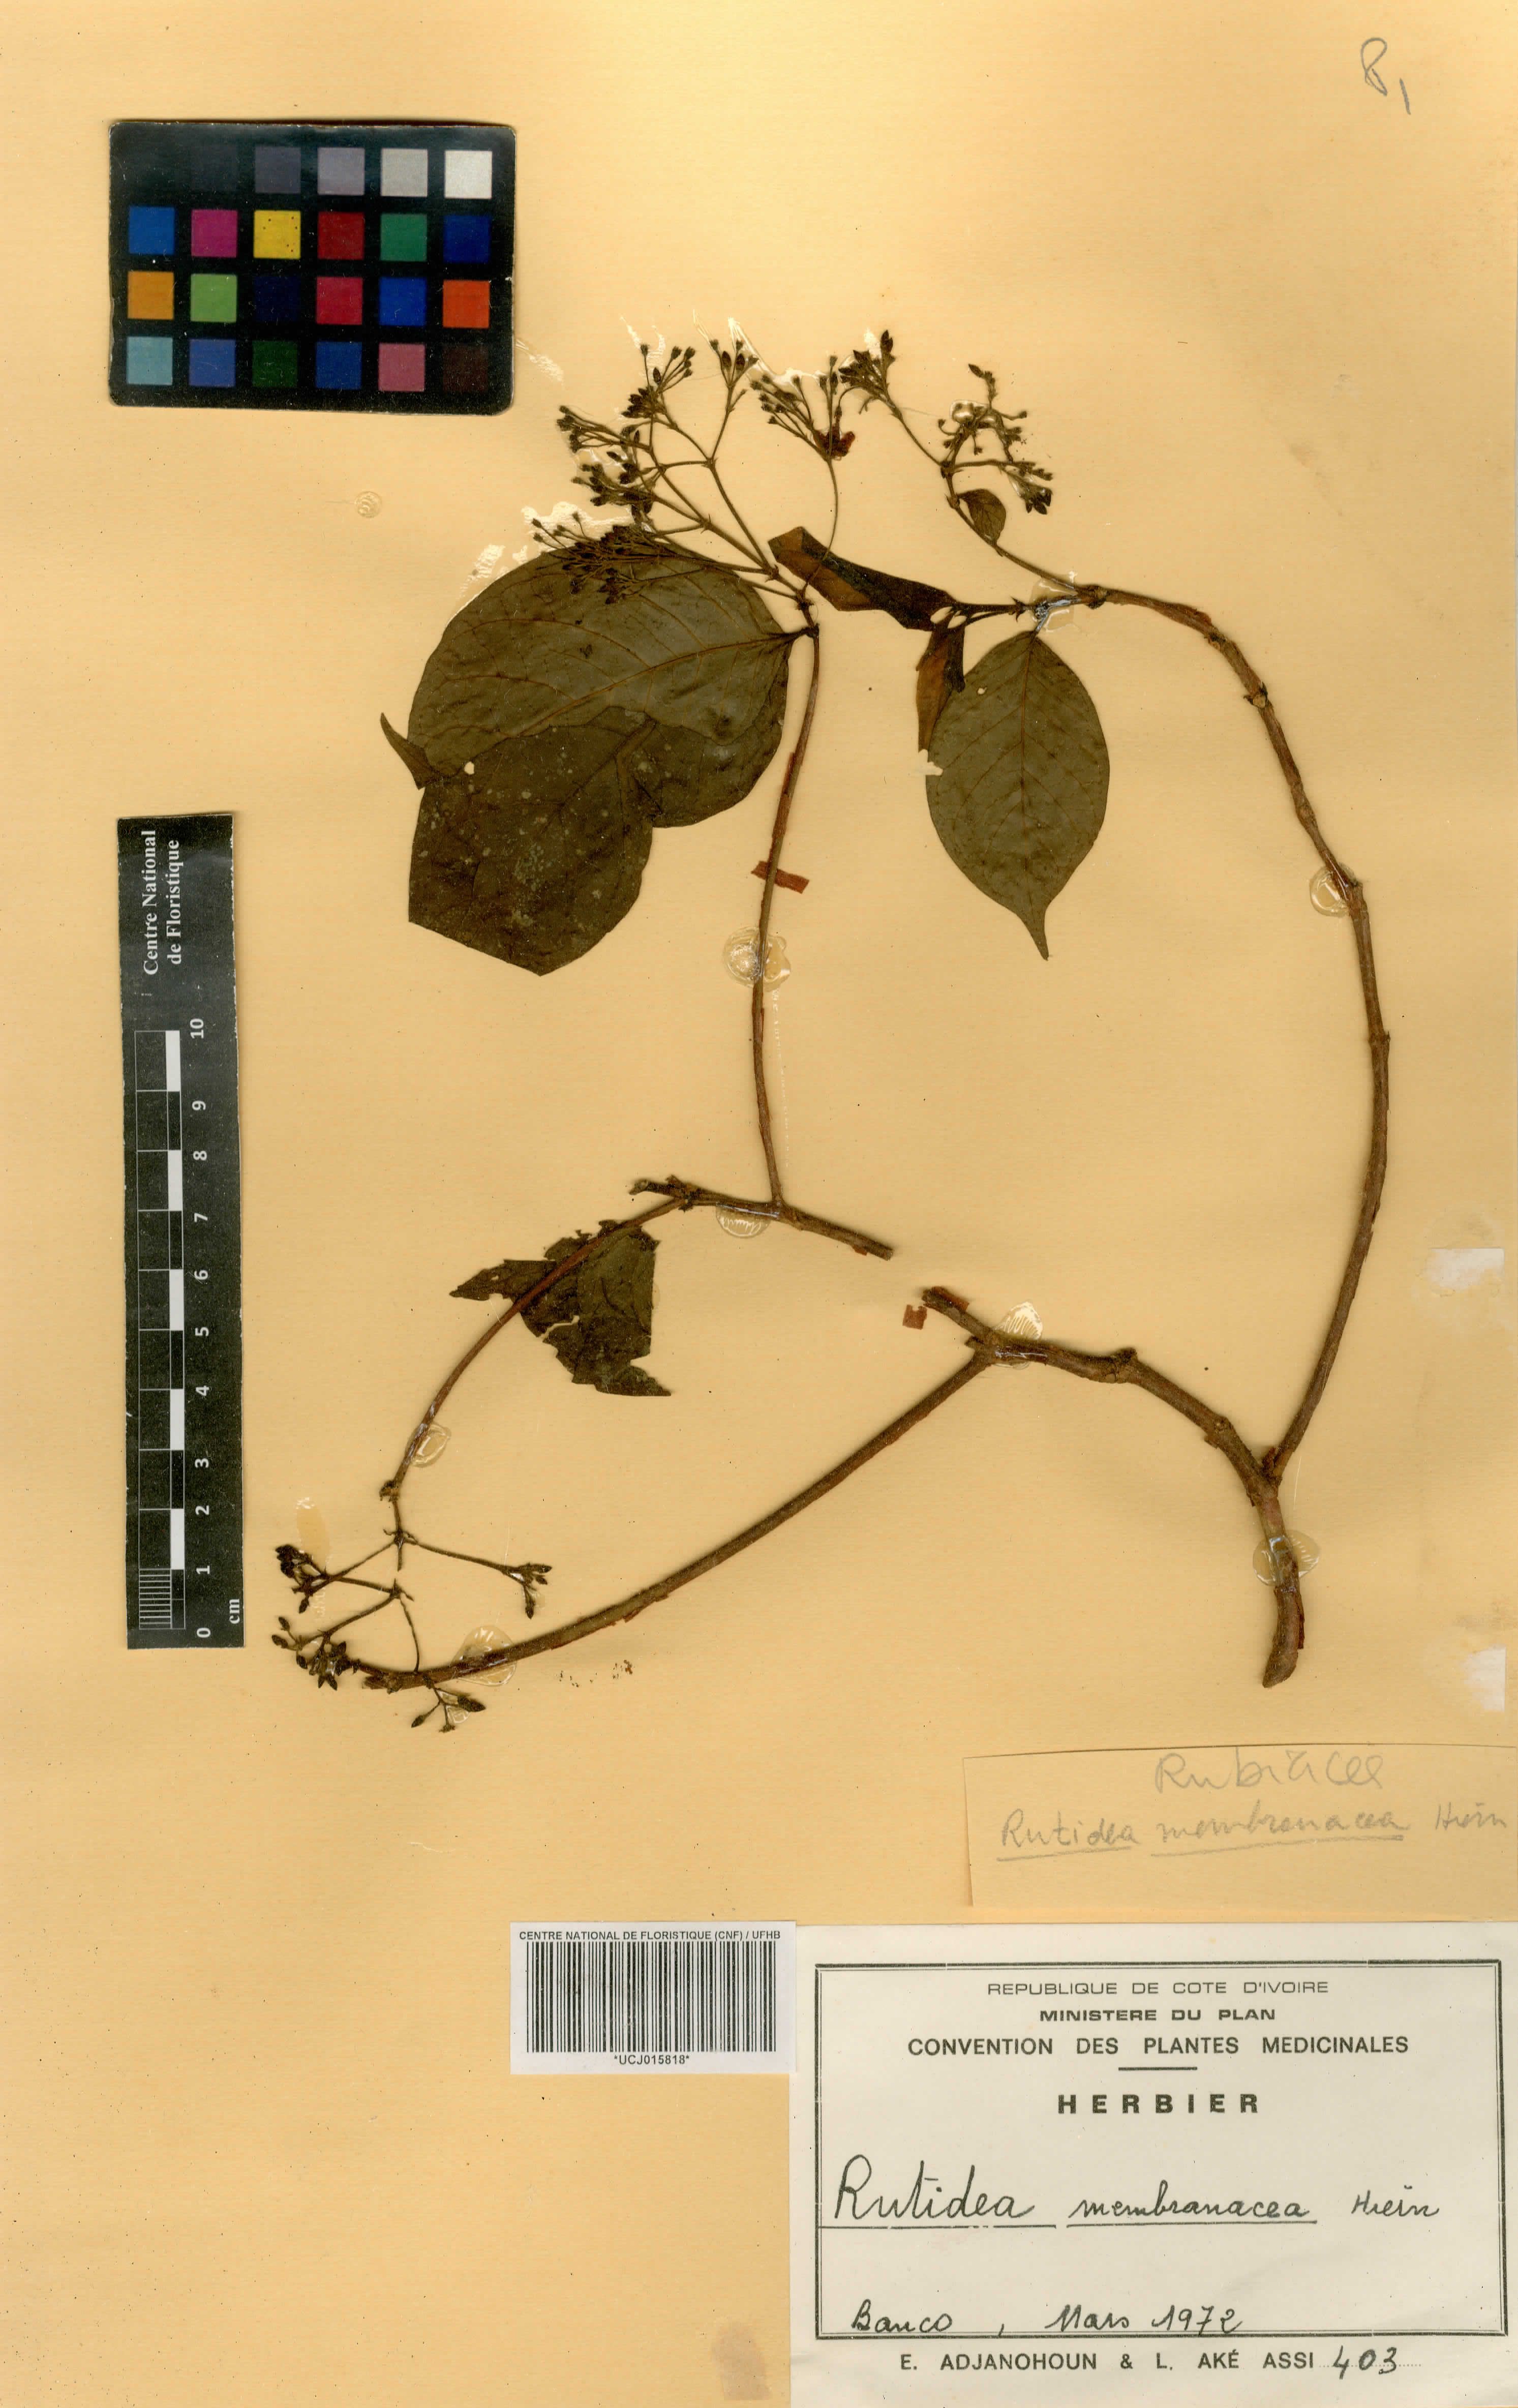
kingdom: Plantae
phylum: Tracheophyta
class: Magnoliopsida
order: Gentianales
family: Rubiaceae
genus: Rutidea
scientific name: Rutidea membranacea
